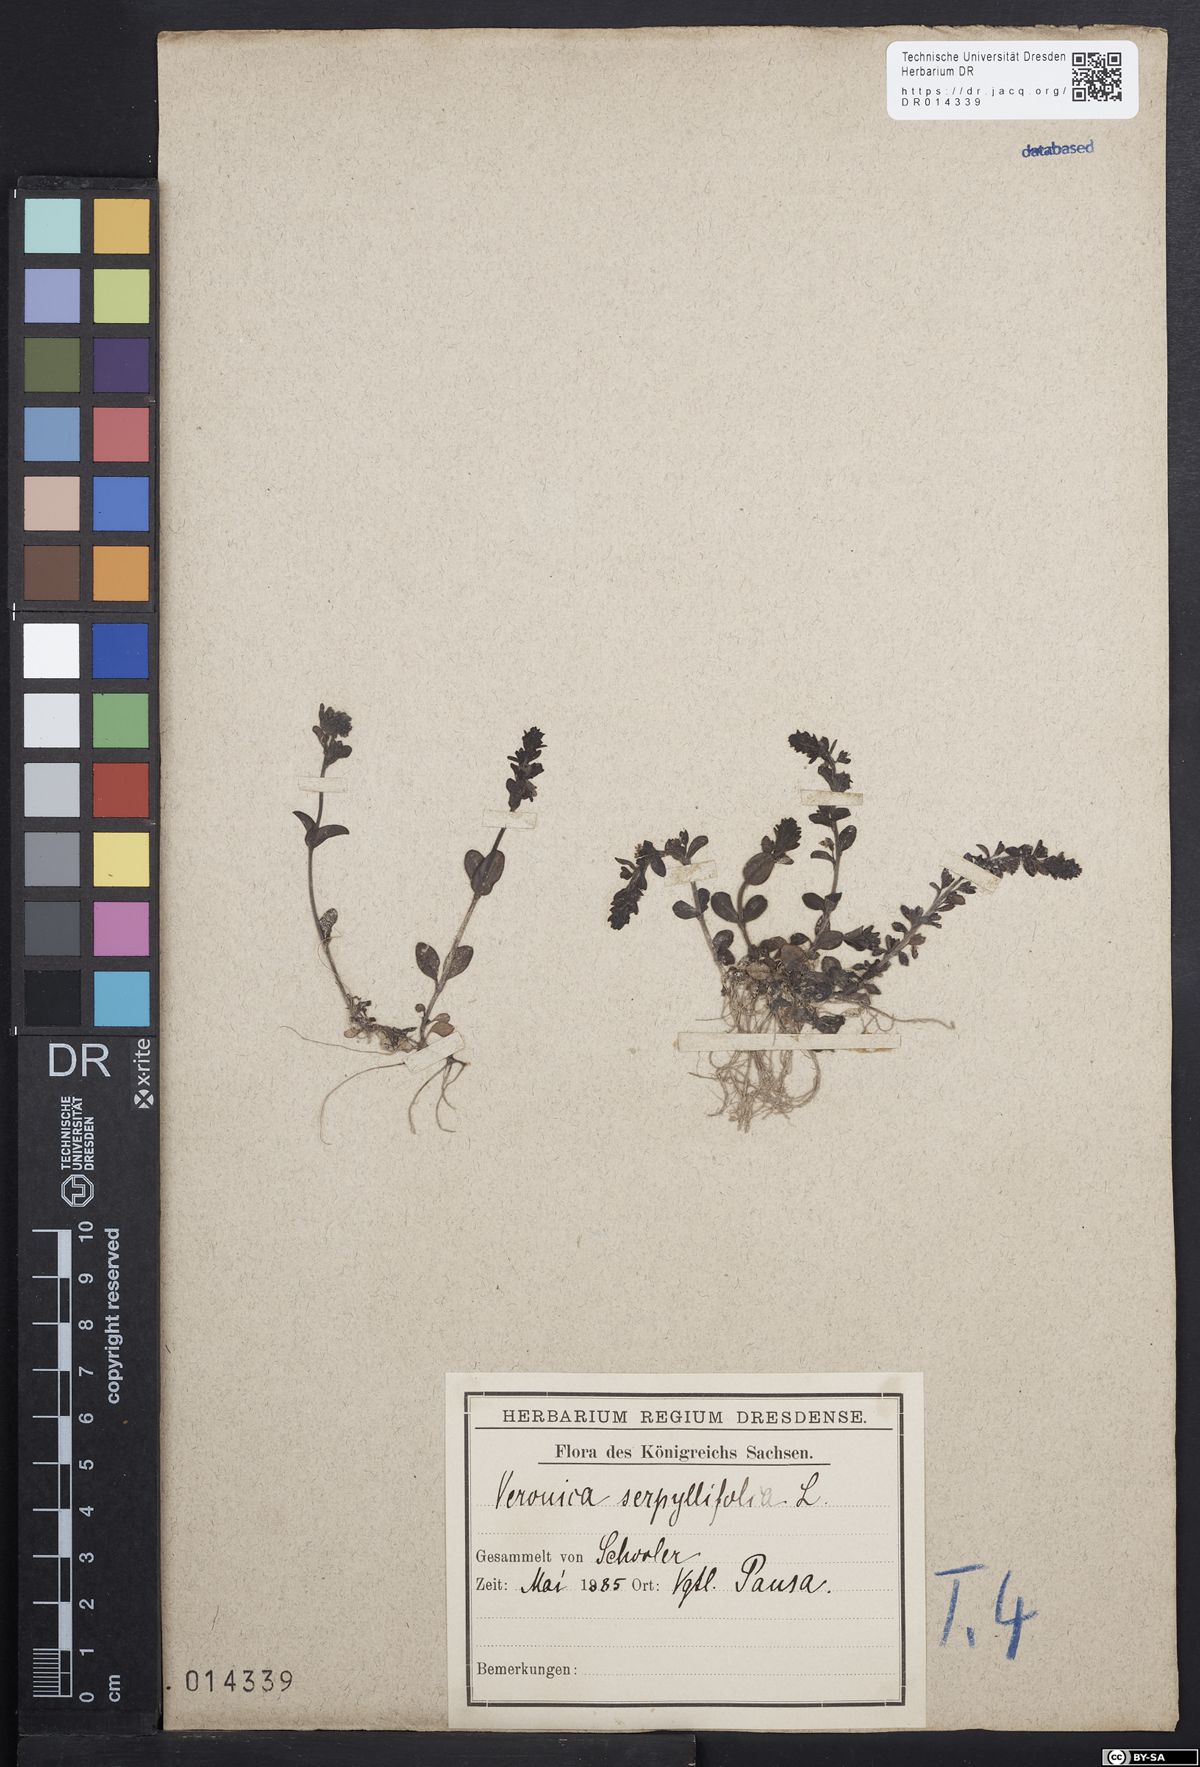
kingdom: Plantae
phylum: Tracheophyta
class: Magnoliopsida
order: Lamiales
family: Plantaginaceae
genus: Veronica
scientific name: Veronica serpyllifolia
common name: Thyme-leaved speedwell
